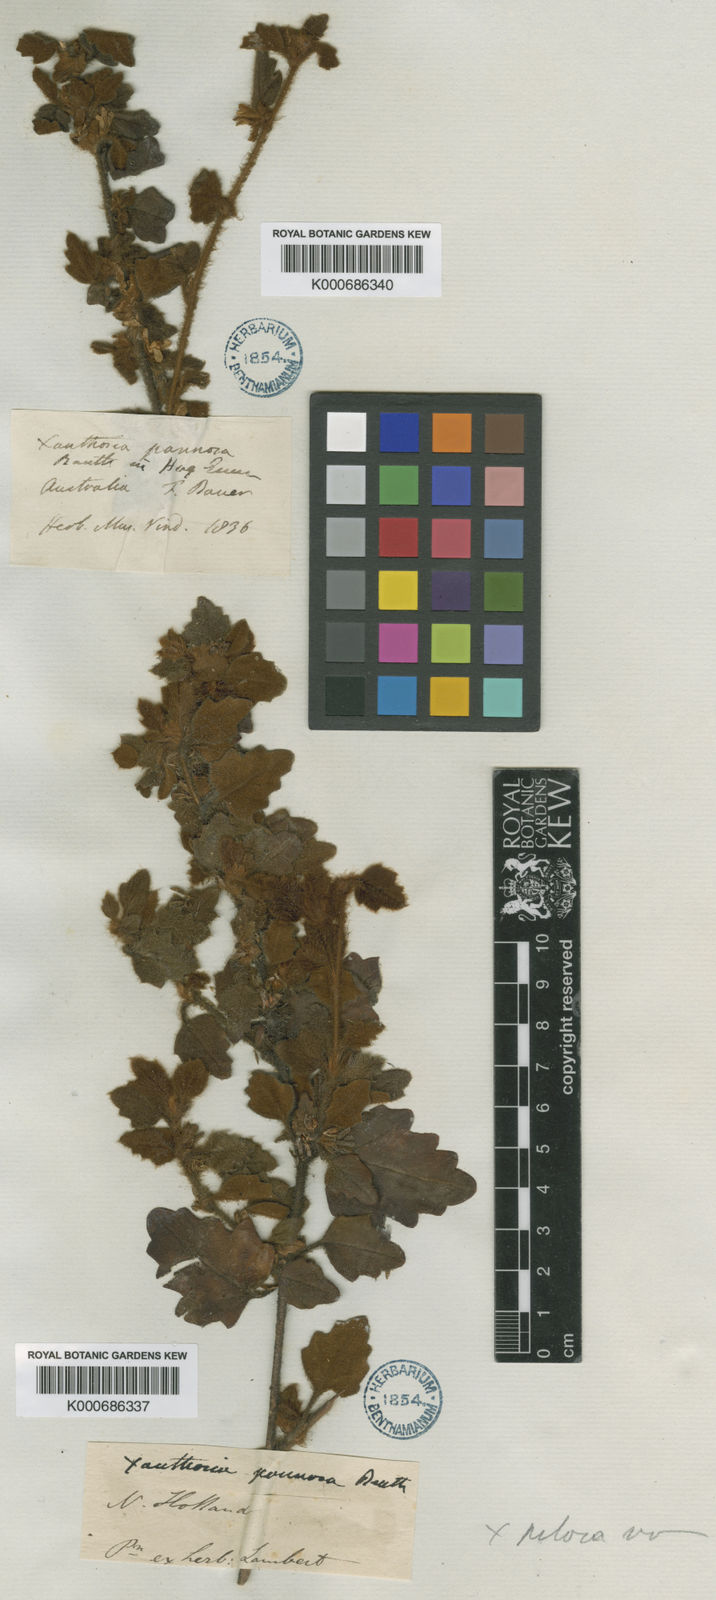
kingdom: Plantae
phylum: Tracheophyta
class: Magnoliopsida
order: Apiales
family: Apiaceae
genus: Xanthosia
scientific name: Xanthosia pilosa
